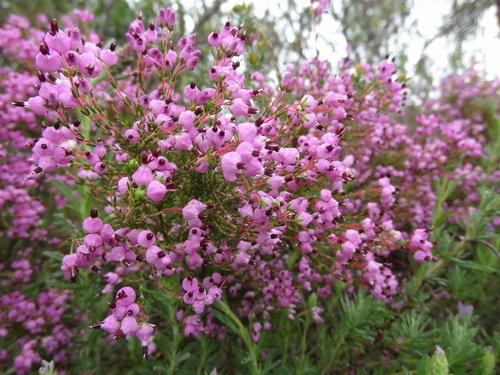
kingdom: Plantae
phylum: Tracheophyta
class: Magnoliopsida
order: Ericales
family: Ericaceae
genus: Erica
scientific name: Erica umbellata
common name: Dwarf spanish heath
